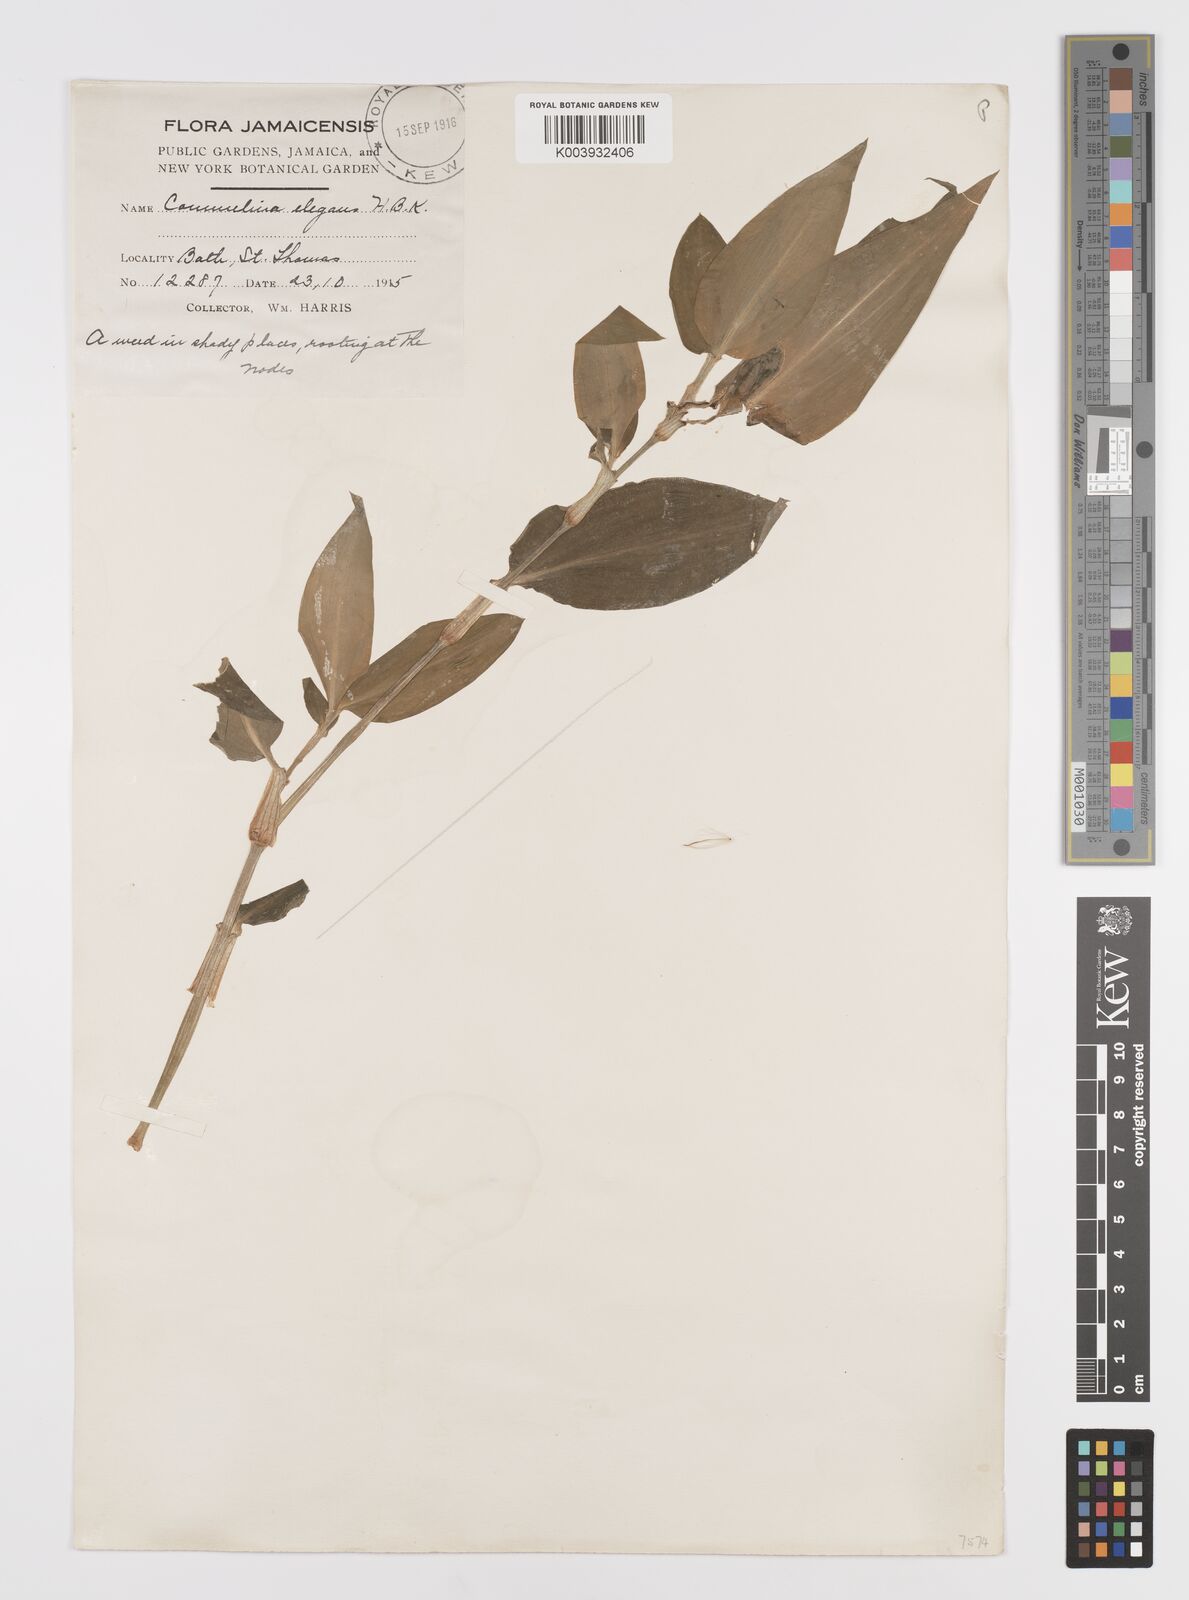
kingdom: Plantae
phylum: Tracheophyta
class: Liliopsida
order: Commelinales
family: Commelinaceae
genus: Commelina
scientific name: Commelina erecta
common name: Blousel blommetjie
